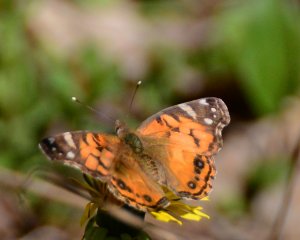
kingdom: Animalia
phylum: Arthropoda
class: Insecta
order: Lepidoptera
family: Nymphalidae
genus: Vanessa
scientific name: Vanessa virginiensis
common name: American Lady
